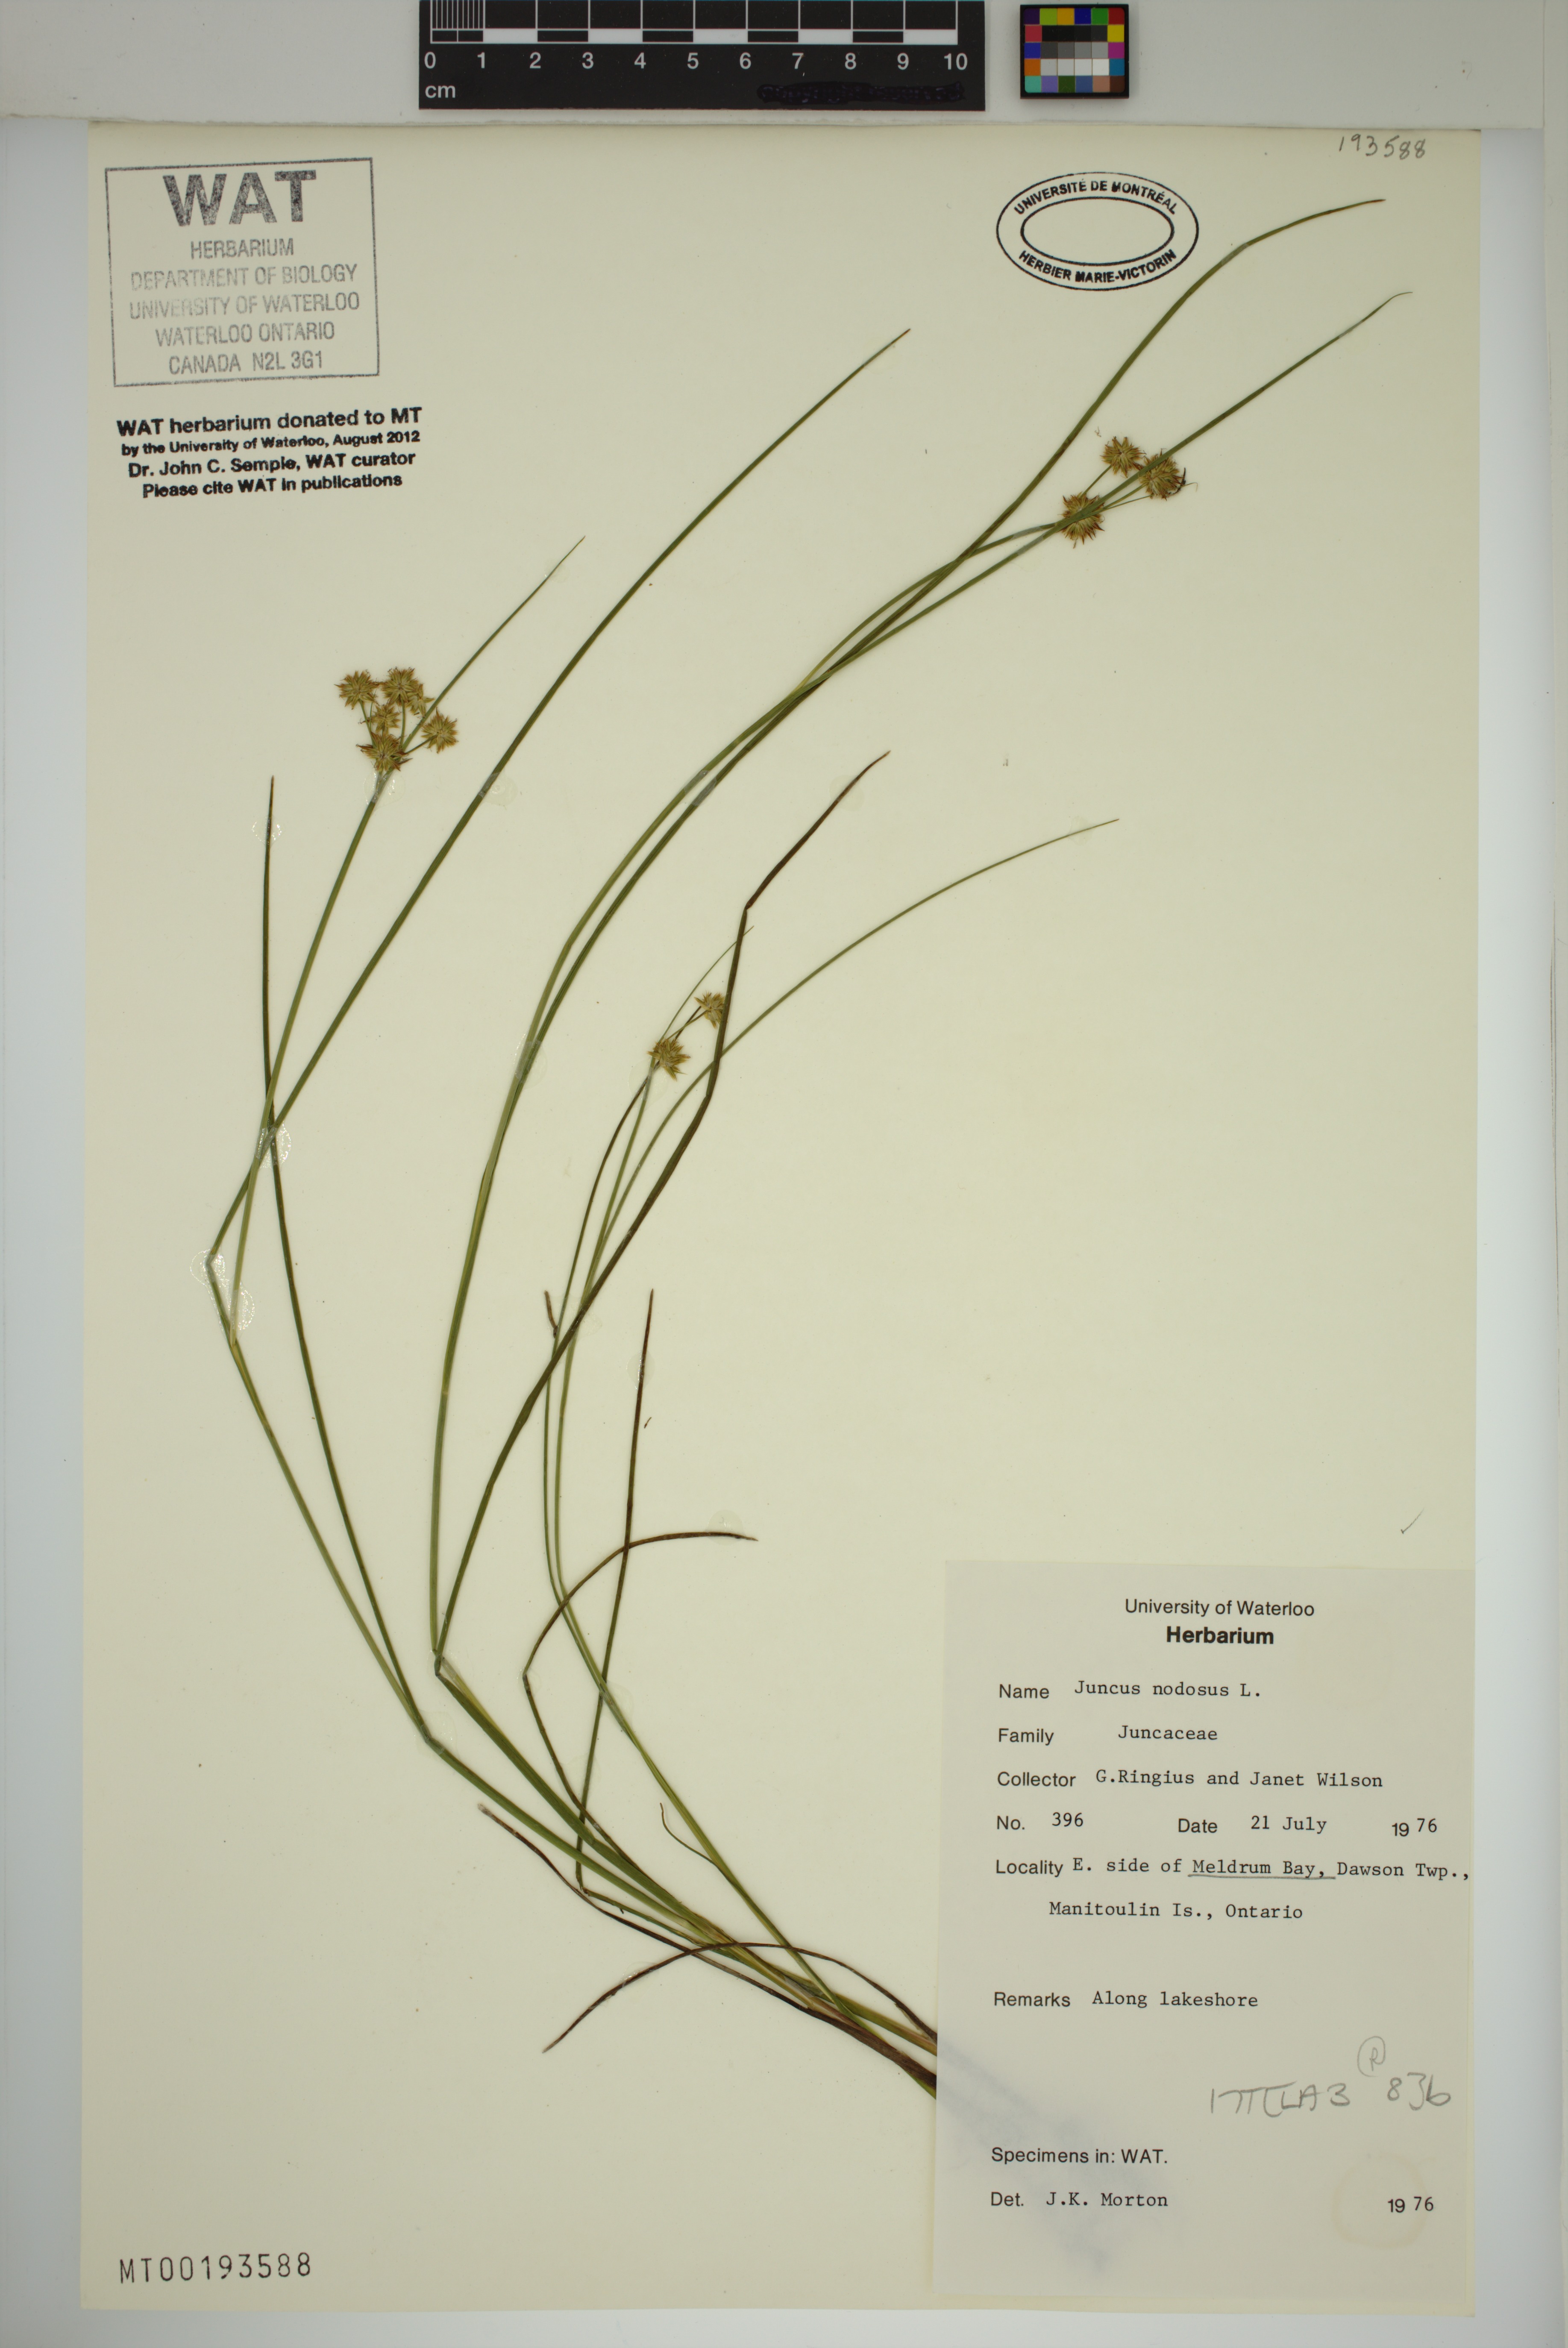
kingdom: Plantae
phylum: Tracheophyta
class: Liliopsida
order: Poales
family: Juncaceae
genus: Juncus
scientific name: Juncus nodosus
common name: Knotted rush
